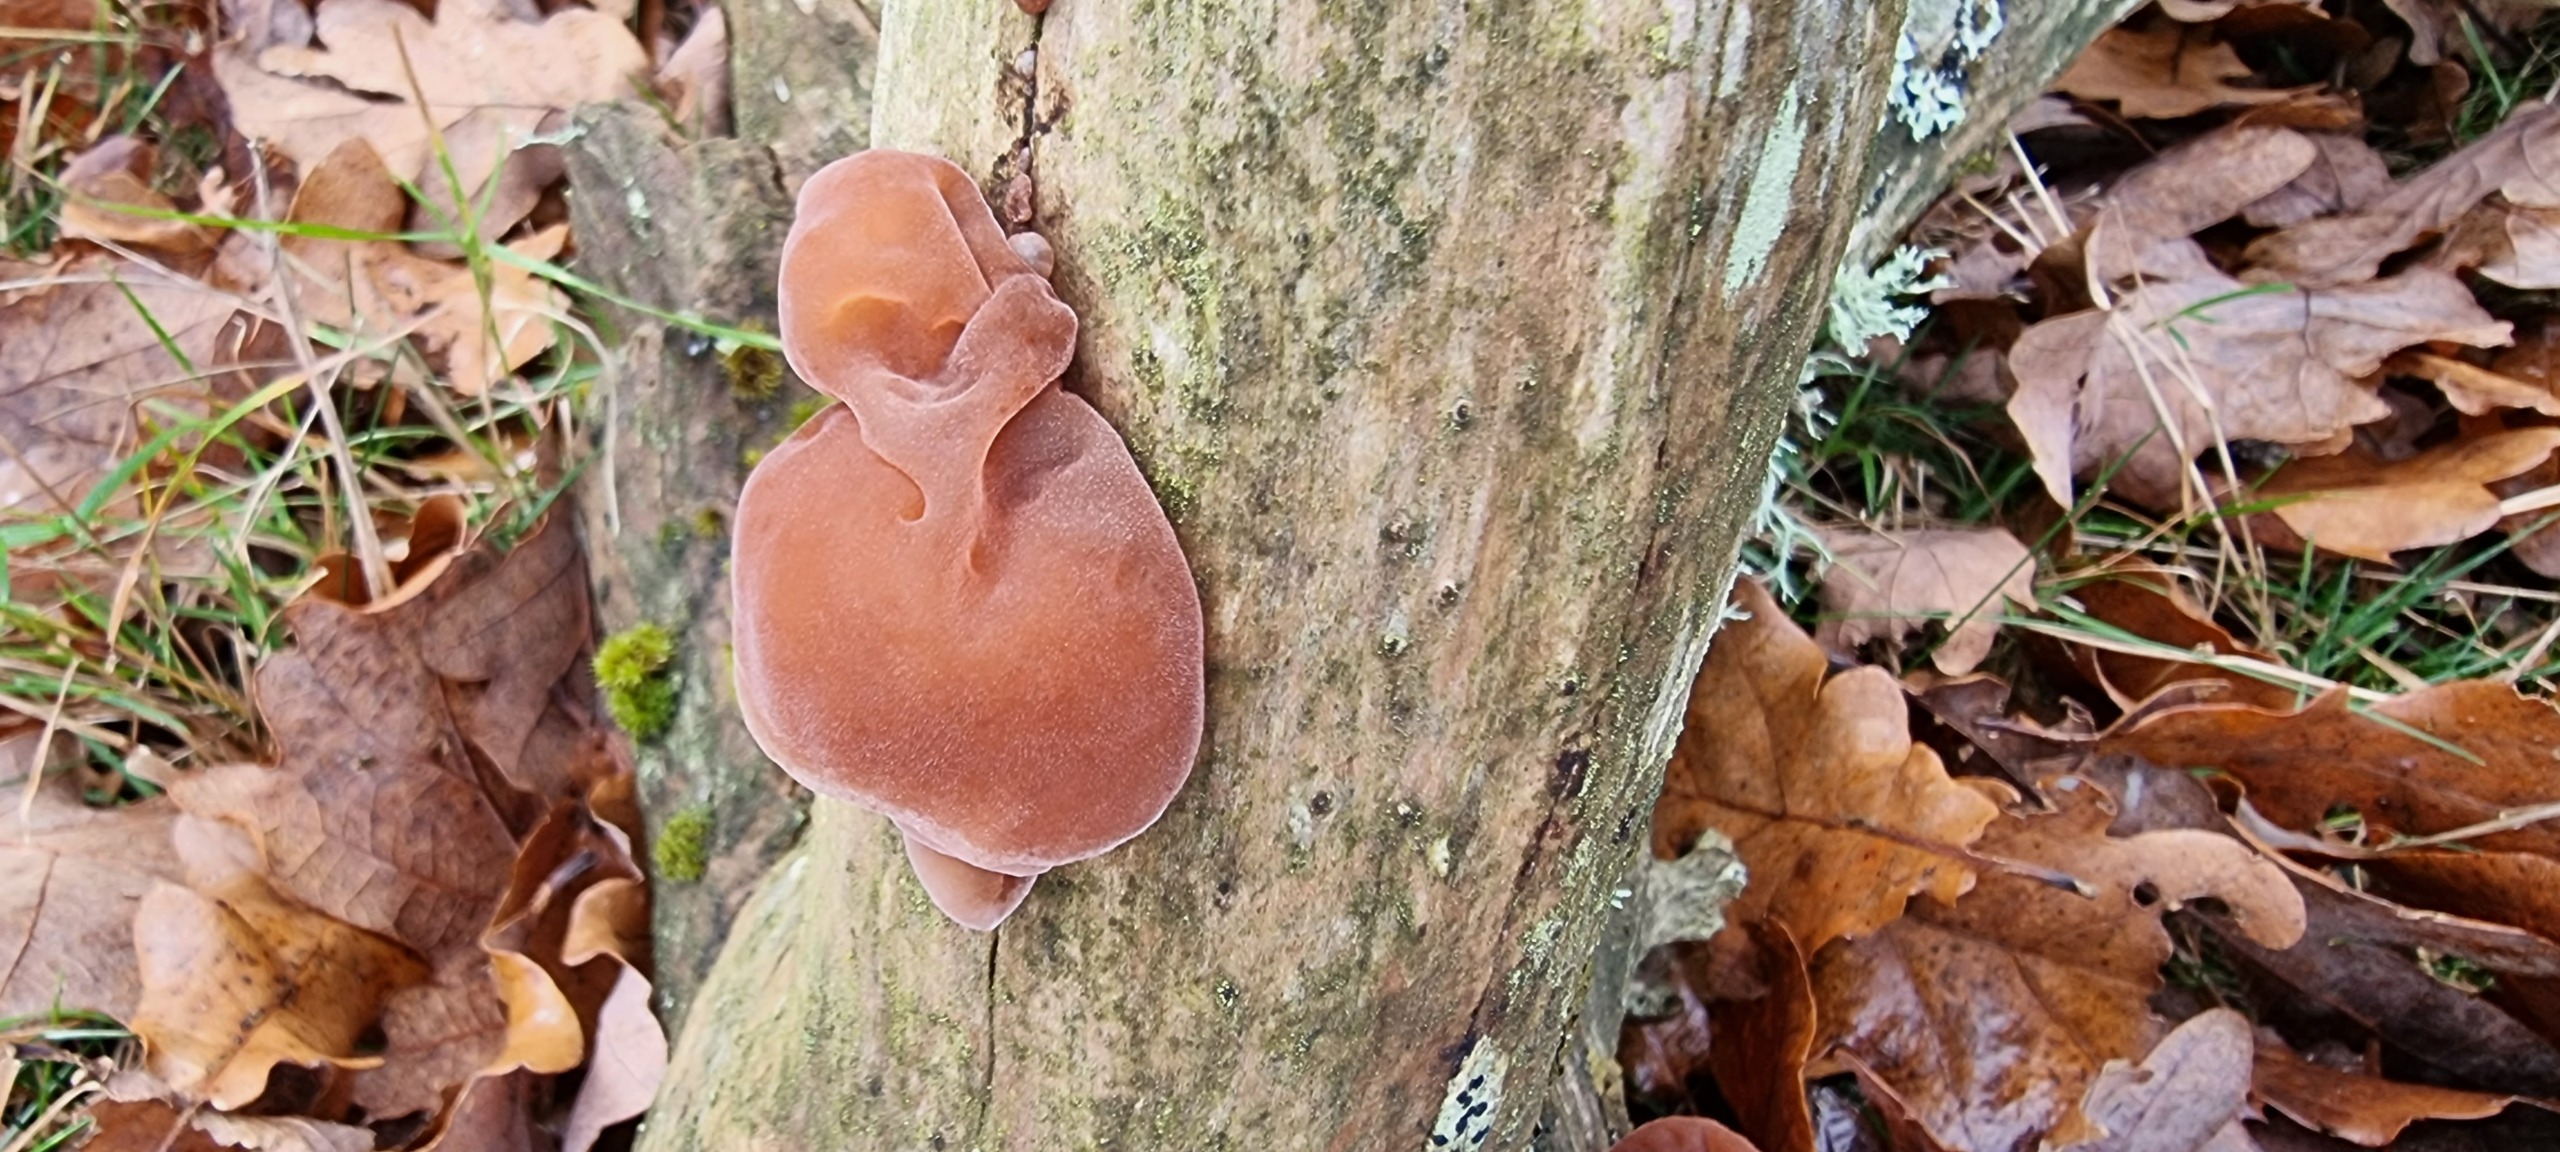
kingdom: Fungi
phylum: Basidiomycota
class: Agaricomycetes
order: Auriculariales
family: Auriculariaceae
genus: Auricularia
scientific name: Auricularia auricula-judae
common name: Almindelig judasøre
